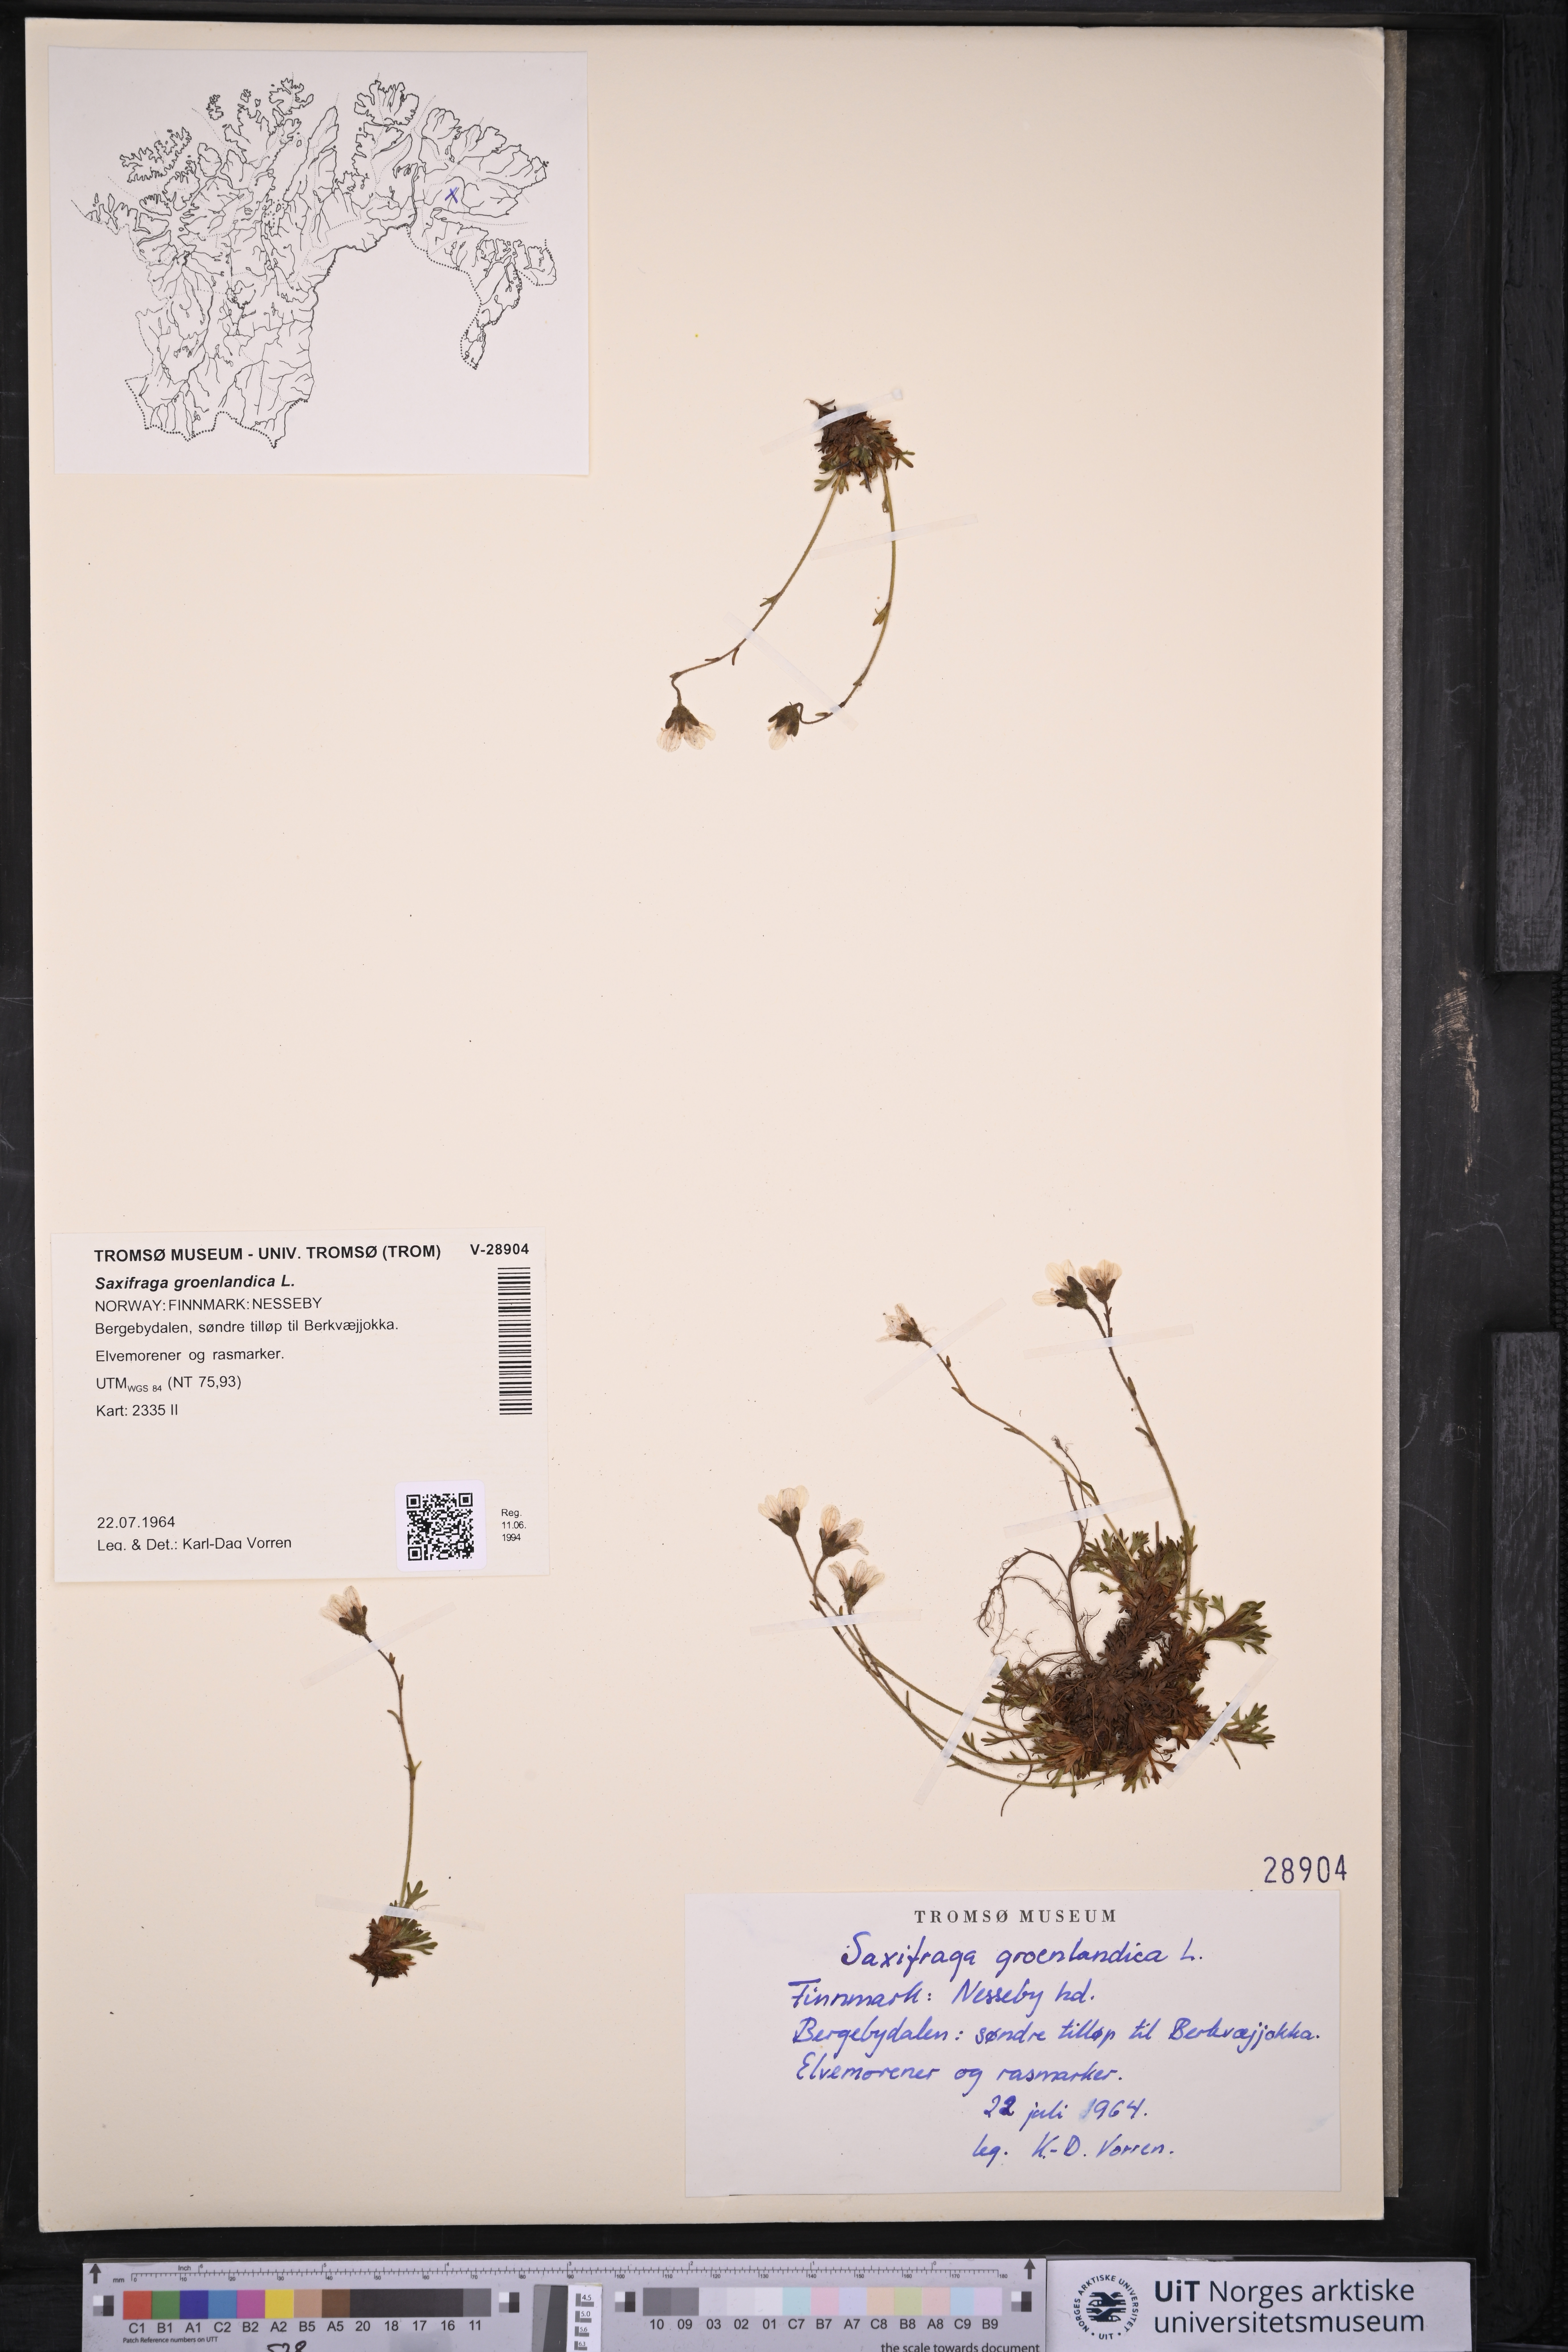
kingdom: Plantae
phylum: Tracheophyta
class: Magnoliopsida
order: Saxifragales
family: Saxifragaceae
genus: Saxifraga
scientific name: Saxifraga cespitosa
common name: Tufted saxifrage
